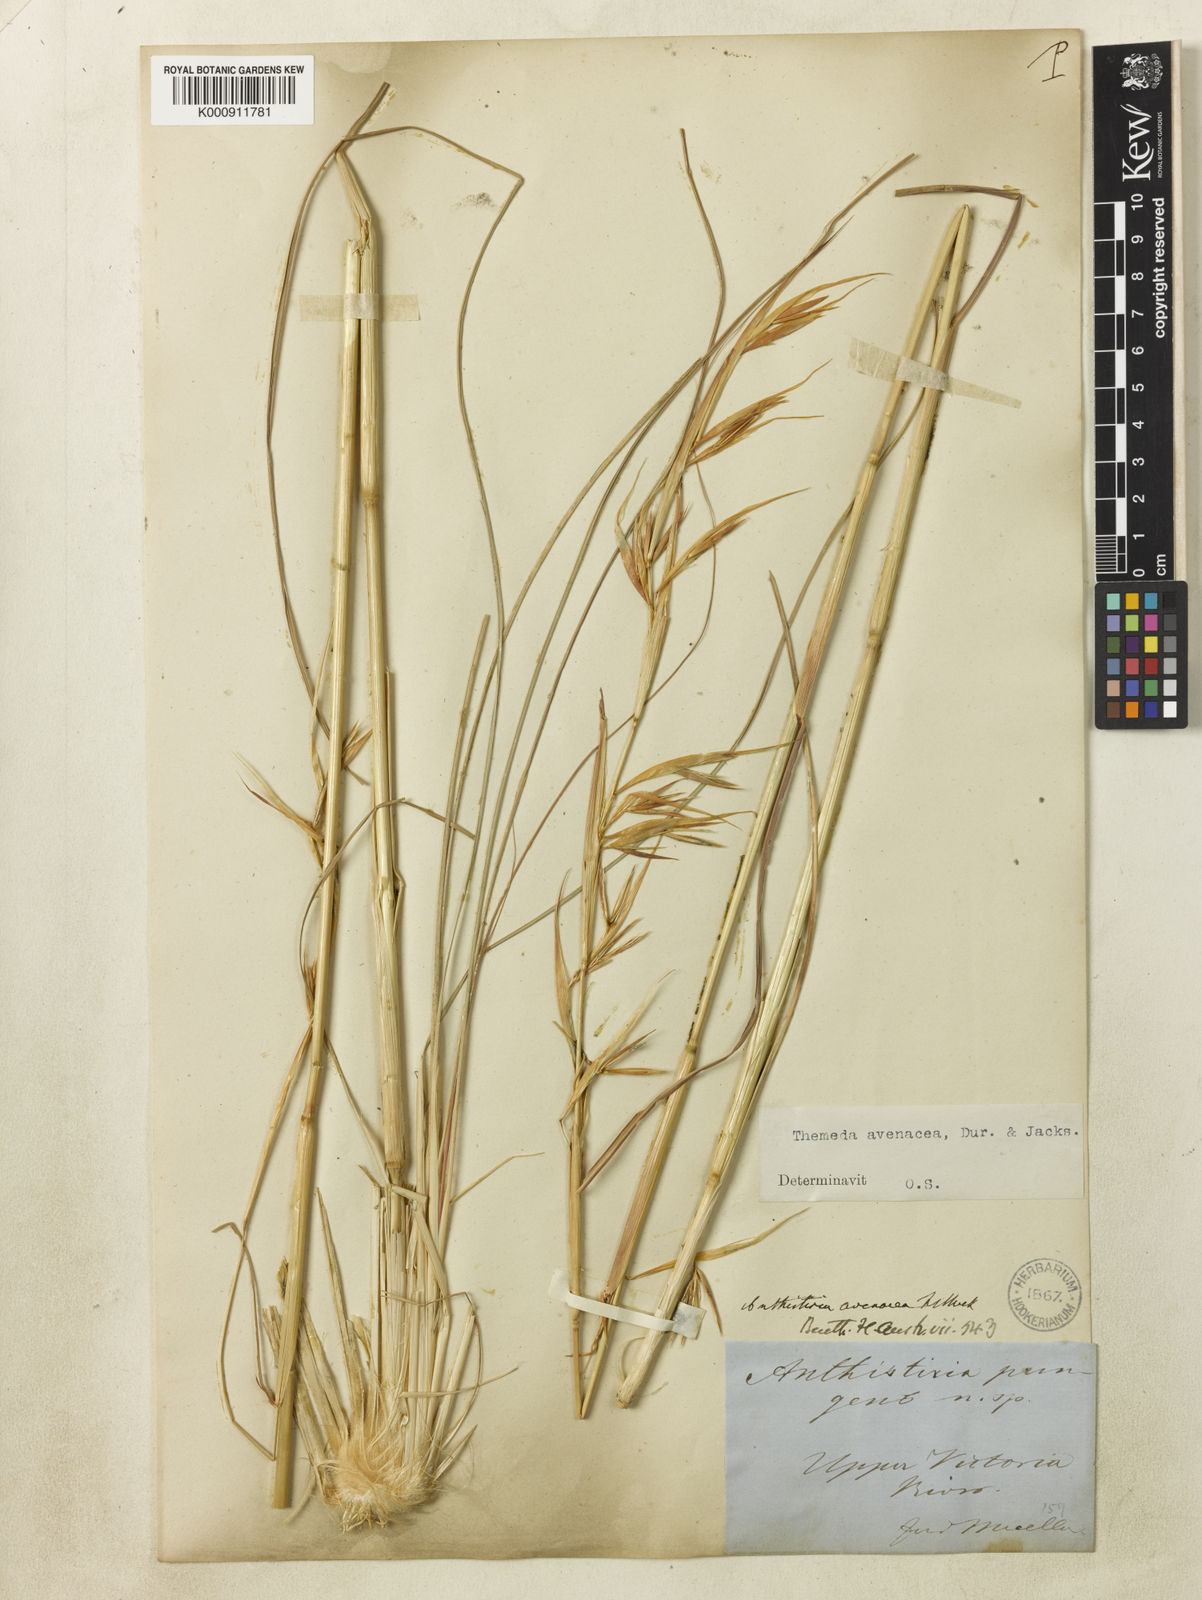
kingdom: Plantae
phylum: Tracheophyta
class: Liliopsida
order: Poales
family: Poaceae
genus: Themeda
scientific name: Themeda avenacea
